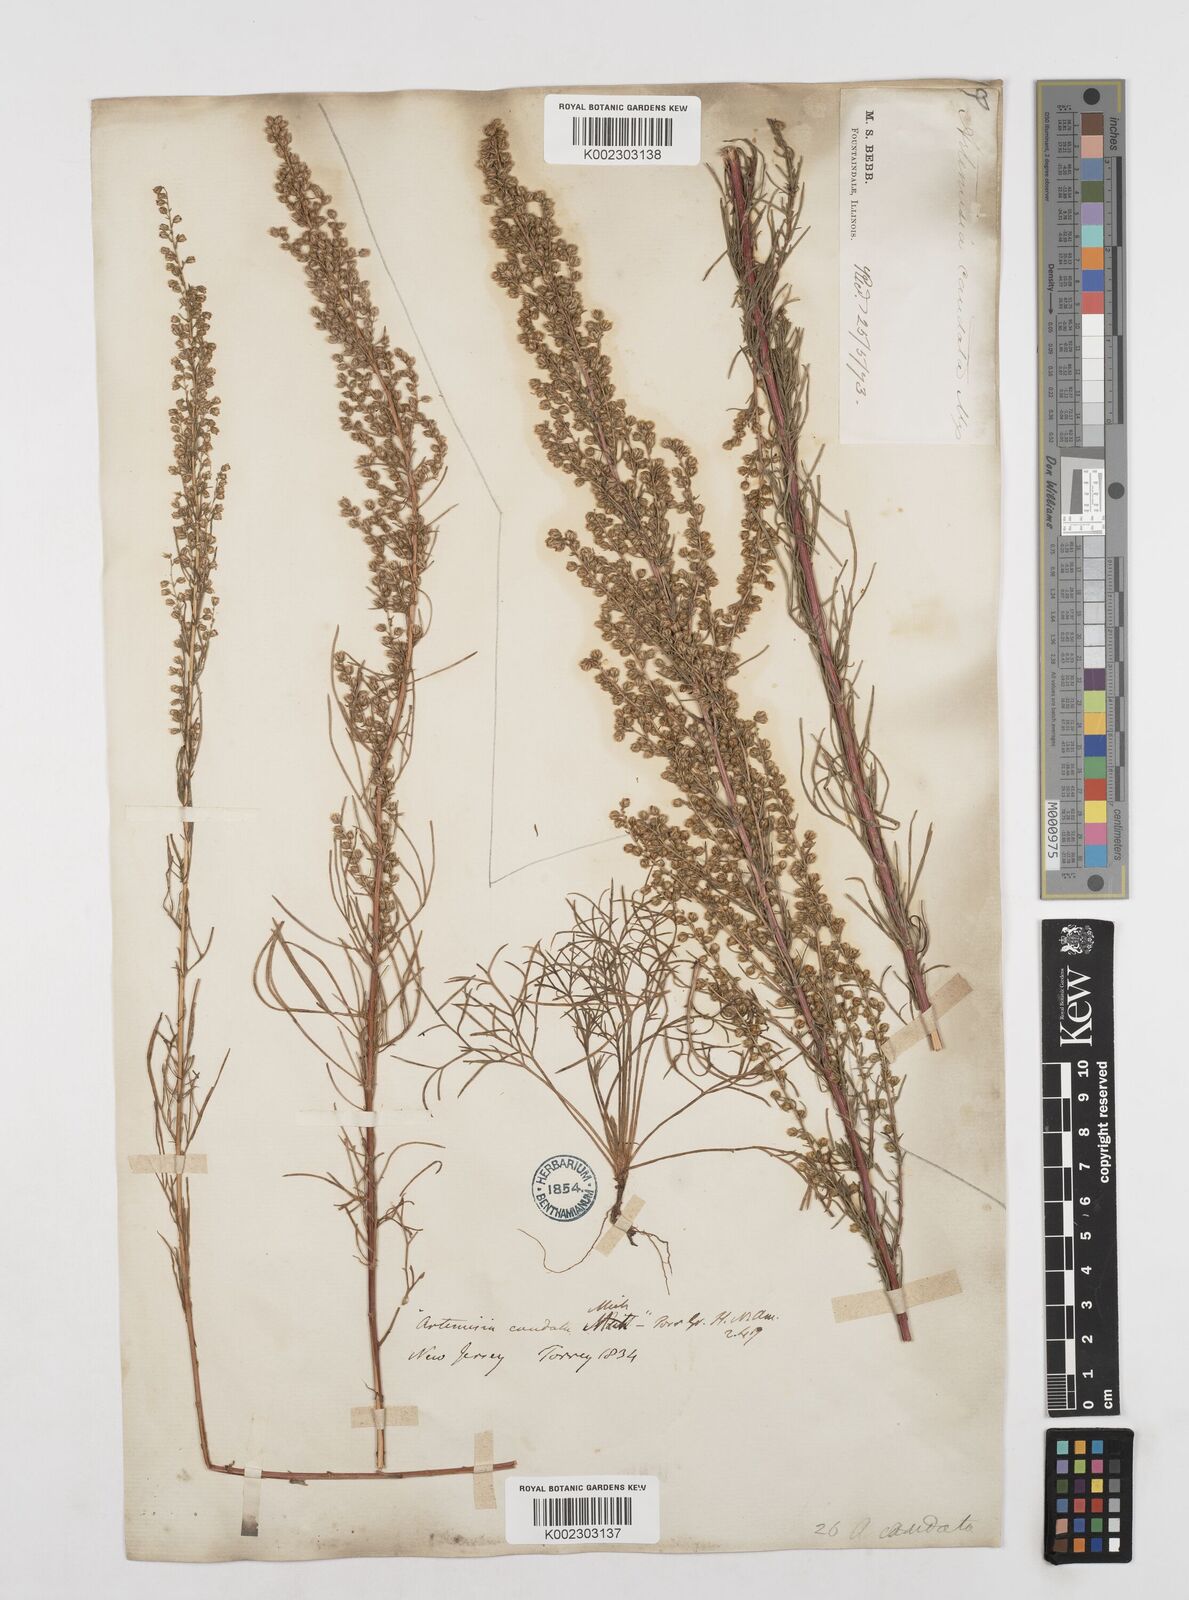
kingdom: Plantae
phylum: Tracheophyta
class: Magnoliopsida
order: Asterales
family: Asteraceae
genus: Artemisia
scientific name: Artemisia campestris
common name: Field wormwood
